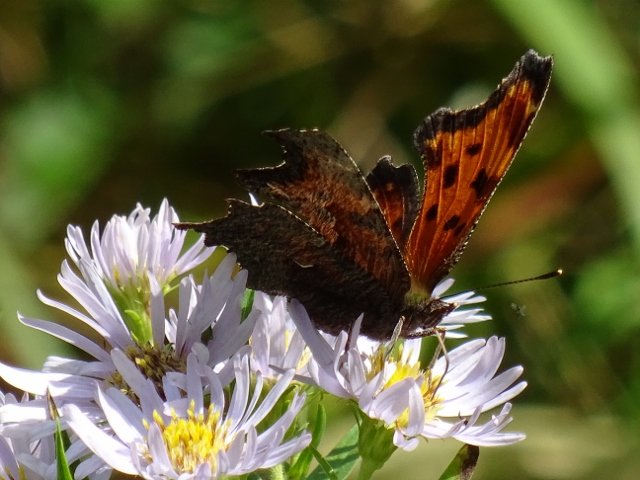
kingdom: Animalia
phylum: Arthropoda
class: Insecta
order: Lepidoptera
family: Nymphalidae
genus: Polygonia
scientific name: Polygonia progne
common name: Gray Comma
